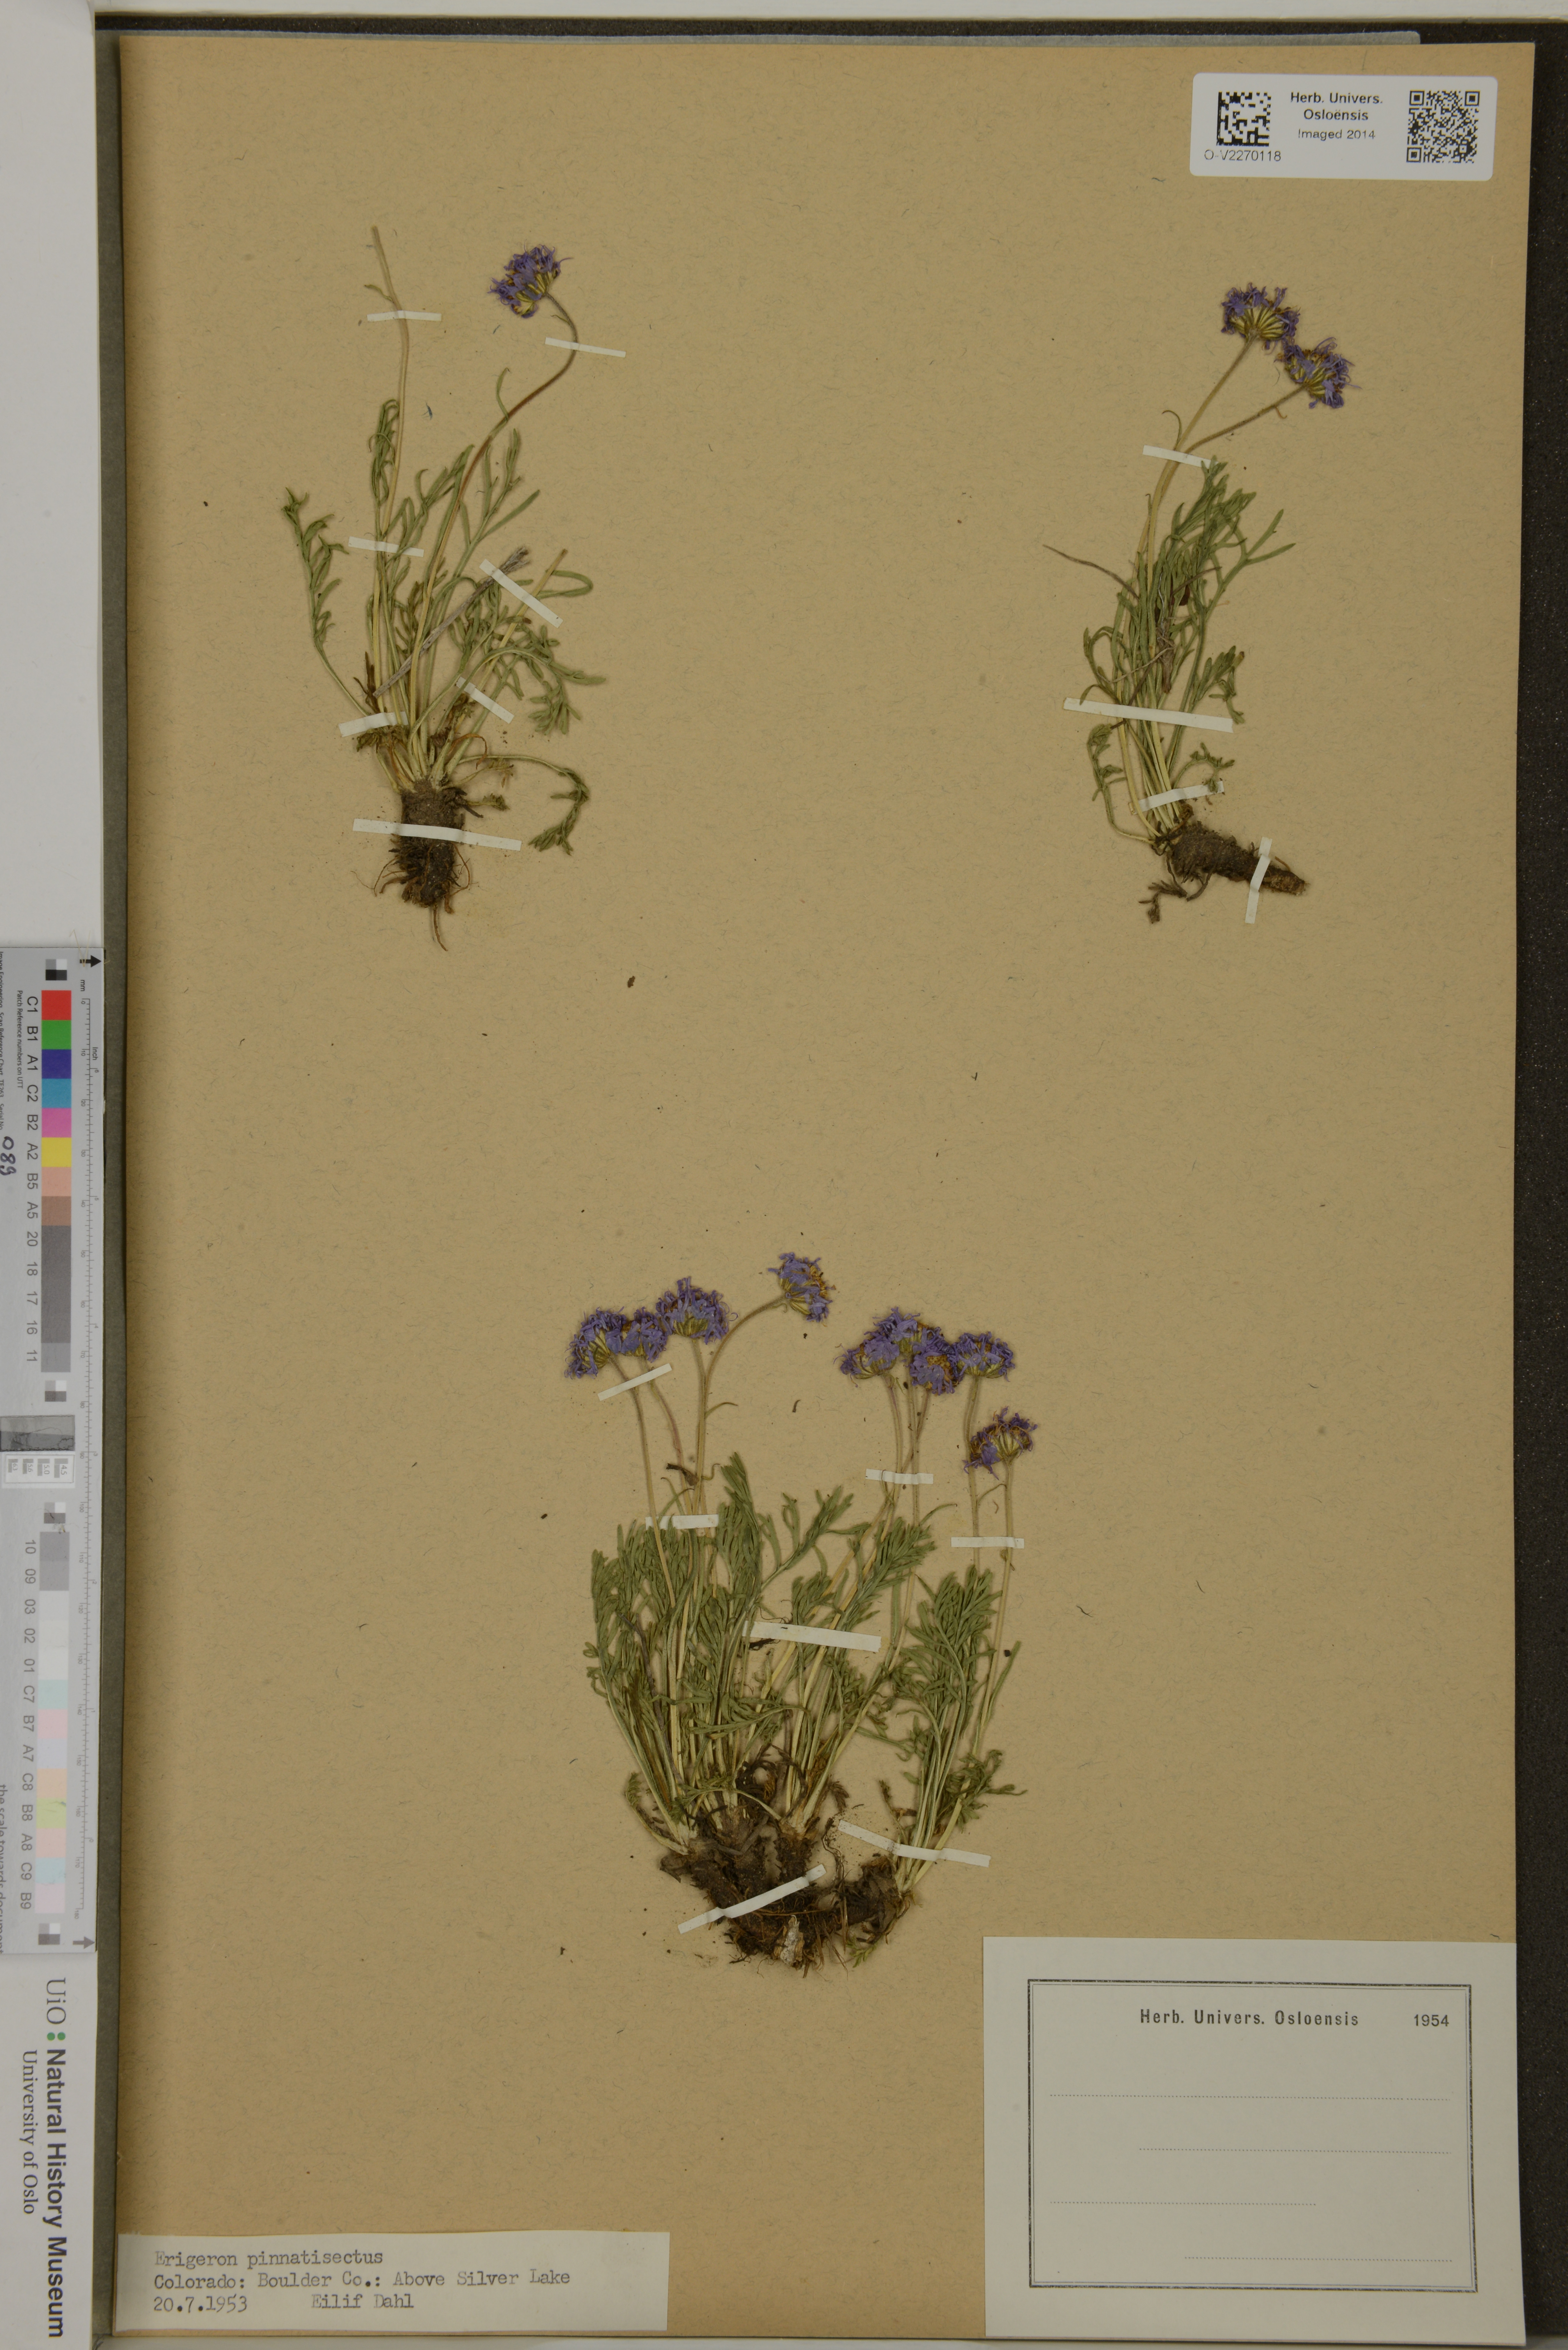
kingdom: Plantae
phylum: Tracheophyta
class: Magnoliopsida
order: Asterales
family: Asteraceae
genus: Erigeron
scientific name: Erigeron pinnatisectus
